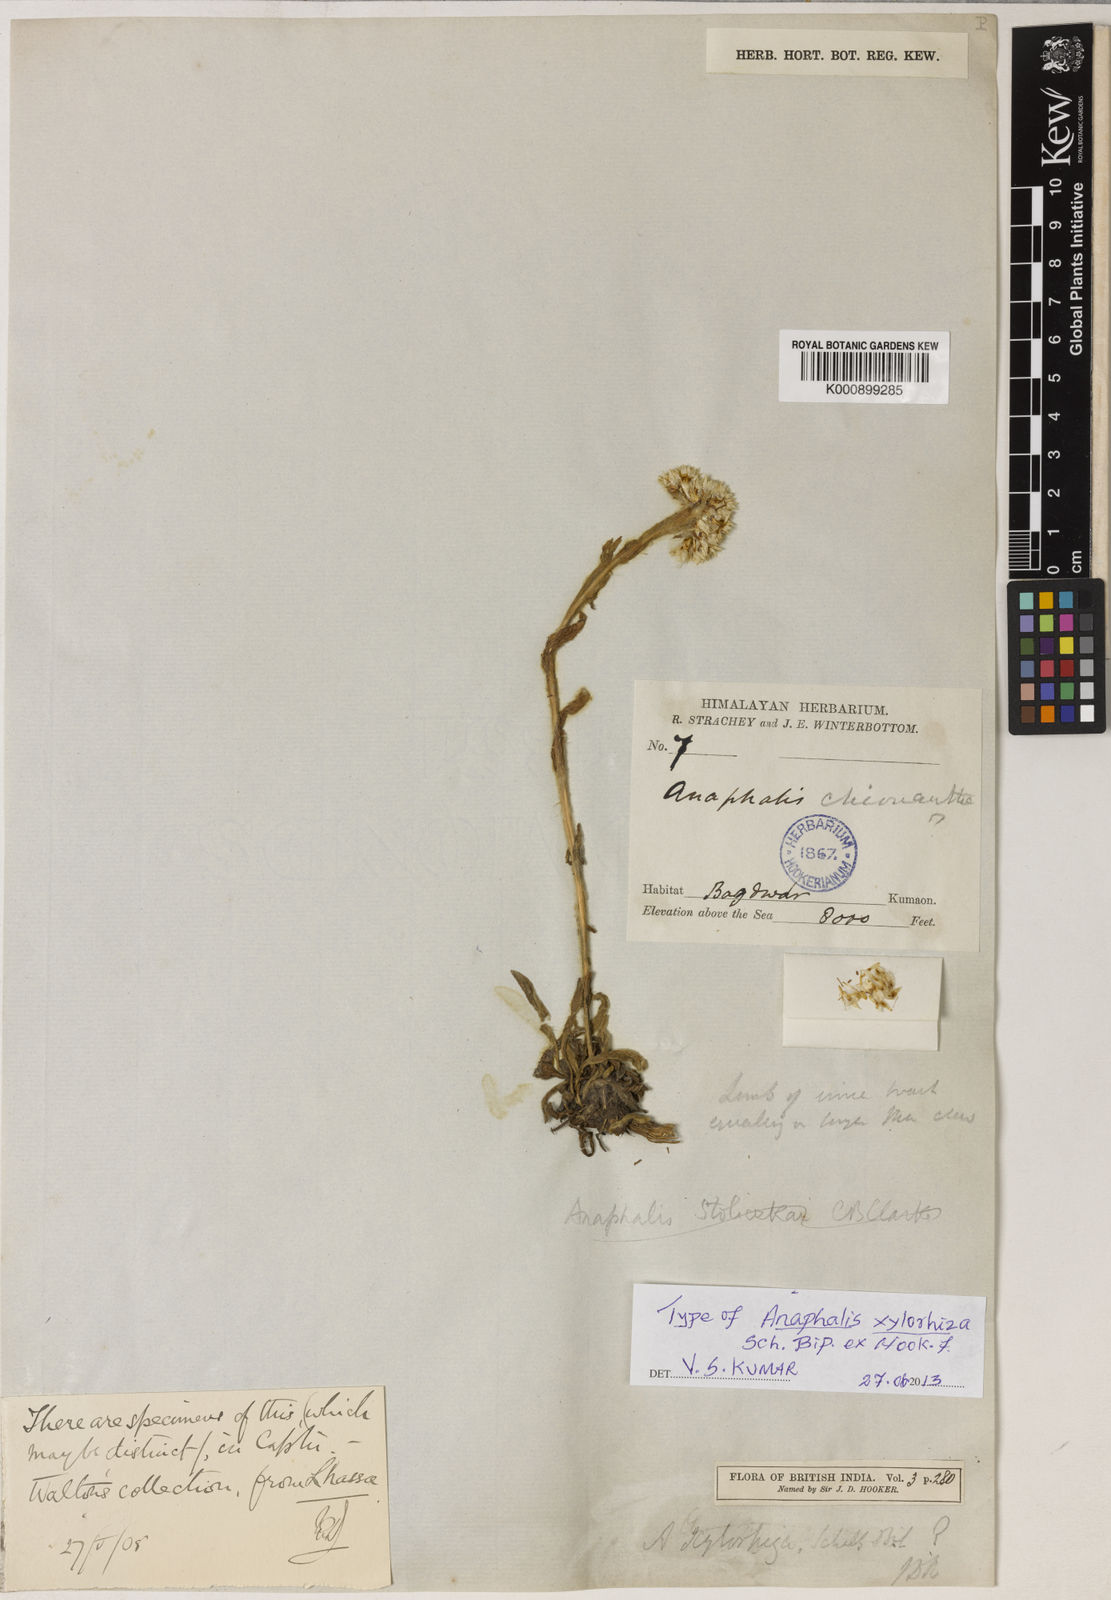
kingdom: Plantae
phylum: Tracheophyta
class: Magnoliopsida
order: Asterales
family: Asteraceae
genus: Anaphalis
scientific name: Anaphalis xylorhiza
